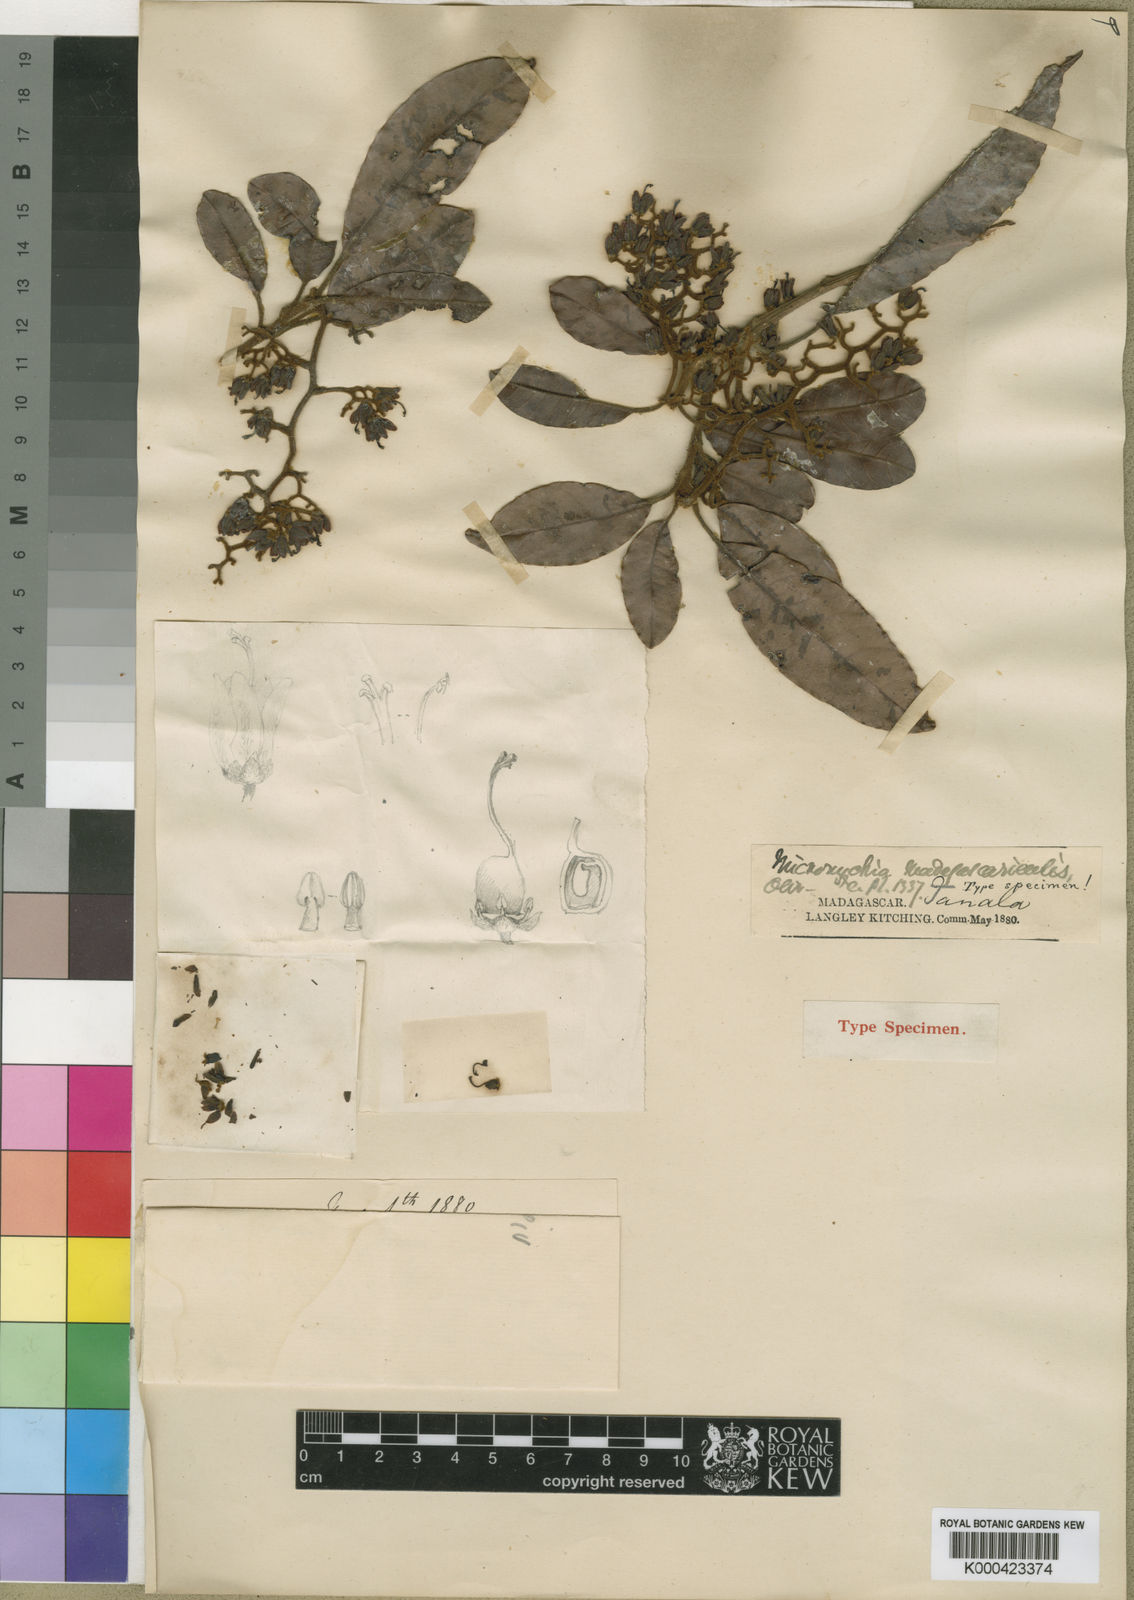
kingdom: Plantae
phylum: Tracheophyta
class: Magnoliopsida
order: Sapindales
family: Anacardiaceae
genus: Micronychia
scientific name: Micronychia madagascariensis
